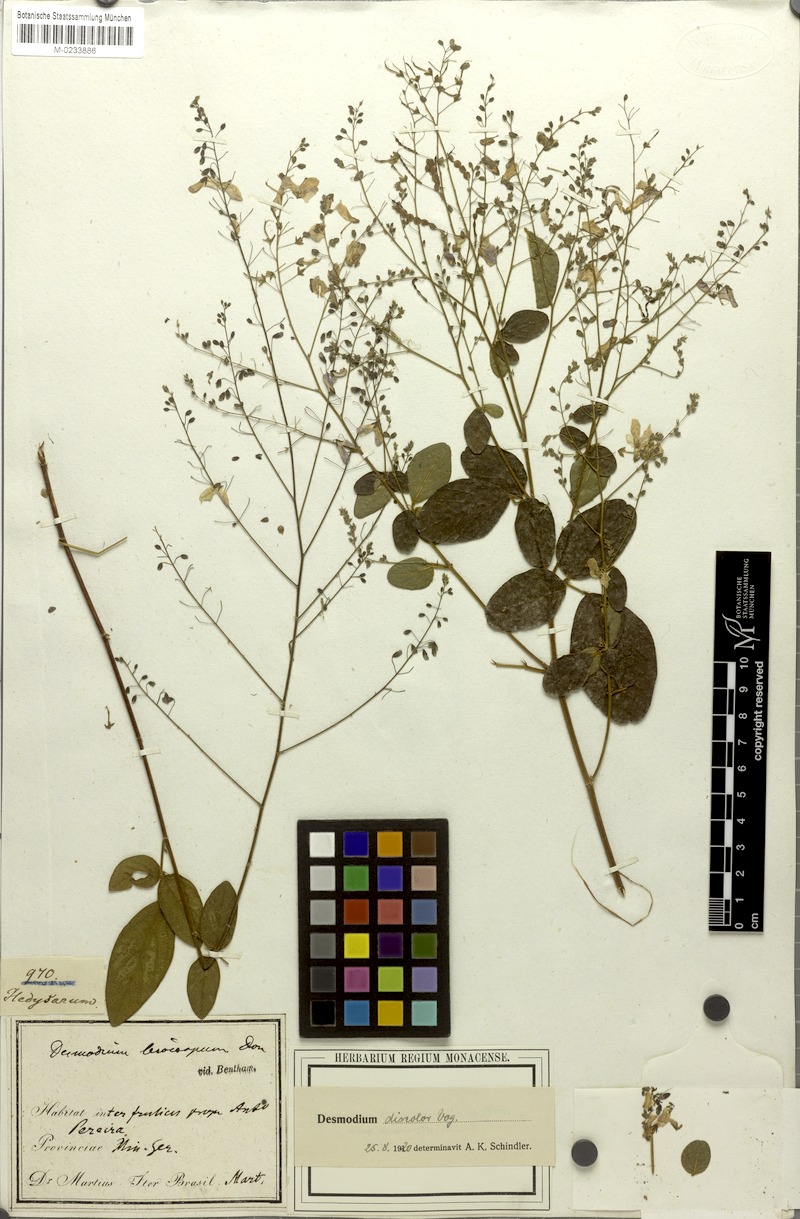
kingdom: Plantae
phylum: Tracheophyta
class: Magnoliopsida
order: Fabales
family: Fabaceae
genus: Desmodium
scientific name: Desmodium subsecundum
